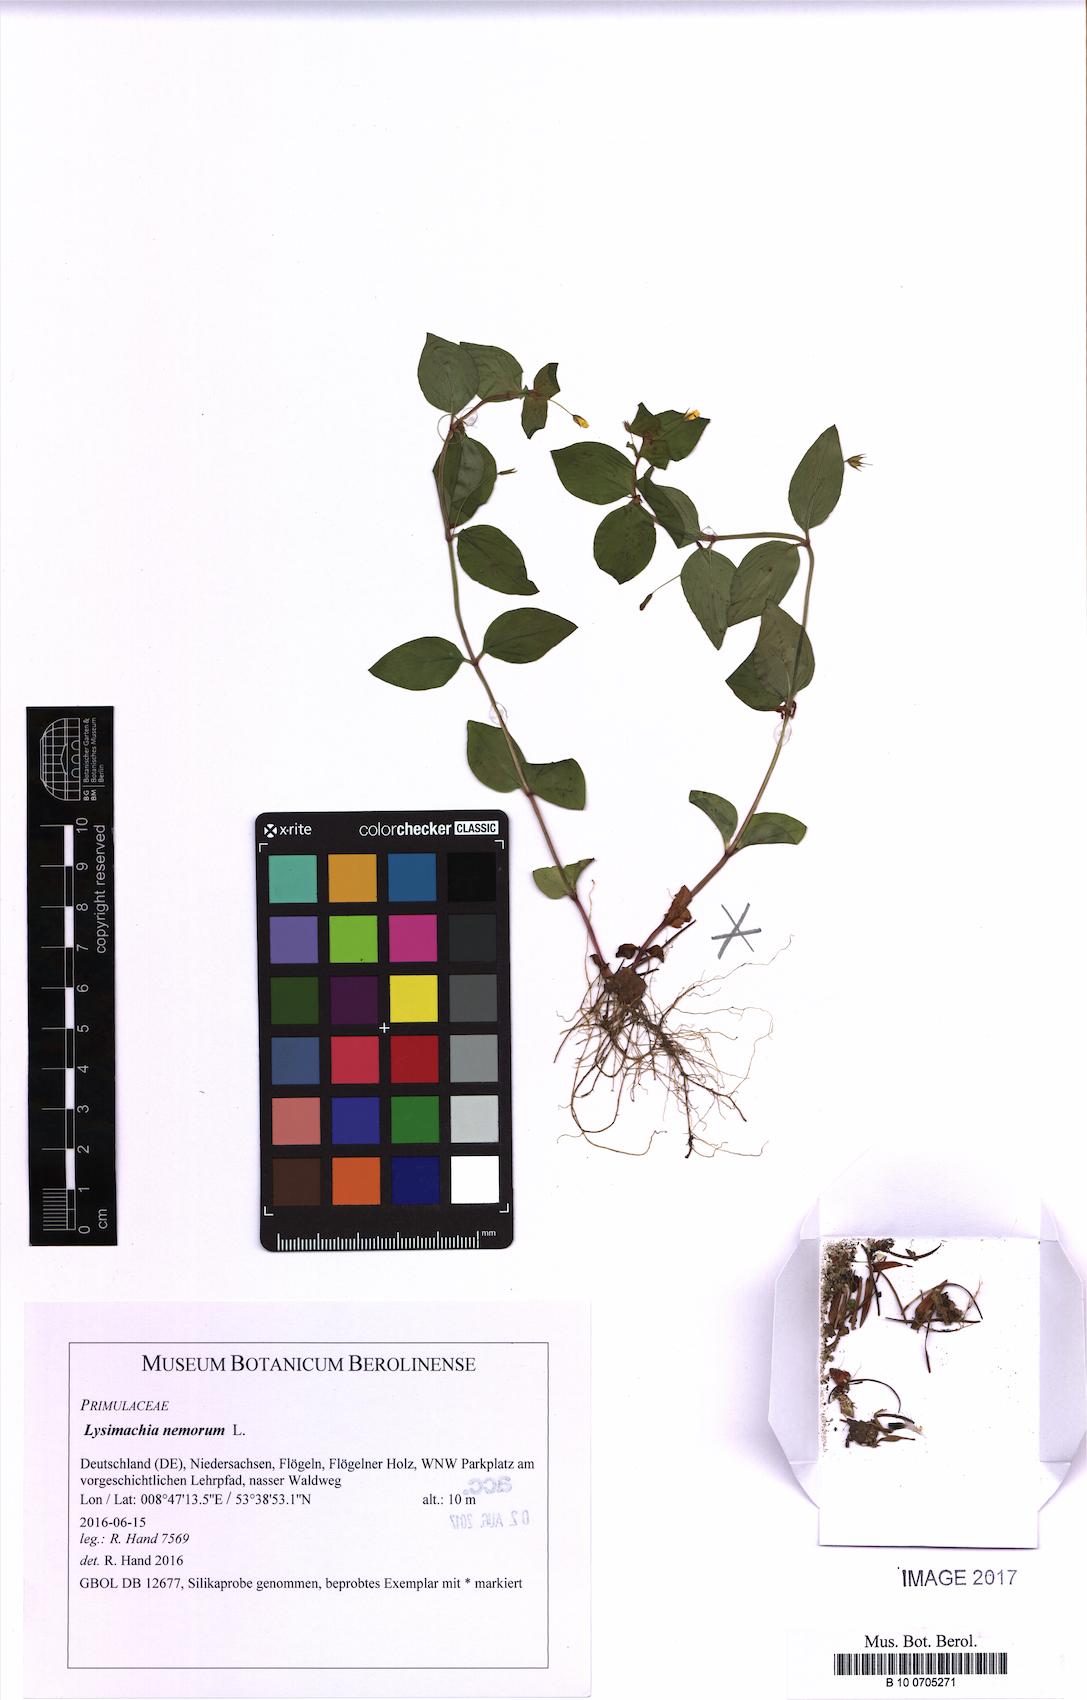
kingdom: Plantae
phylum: Tracheophyta
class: Magnoliopsida
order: Ericales
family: Primulaceae
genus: Lysimachia
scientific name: Lysimachia nemorum
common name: Yellow pimpernel
